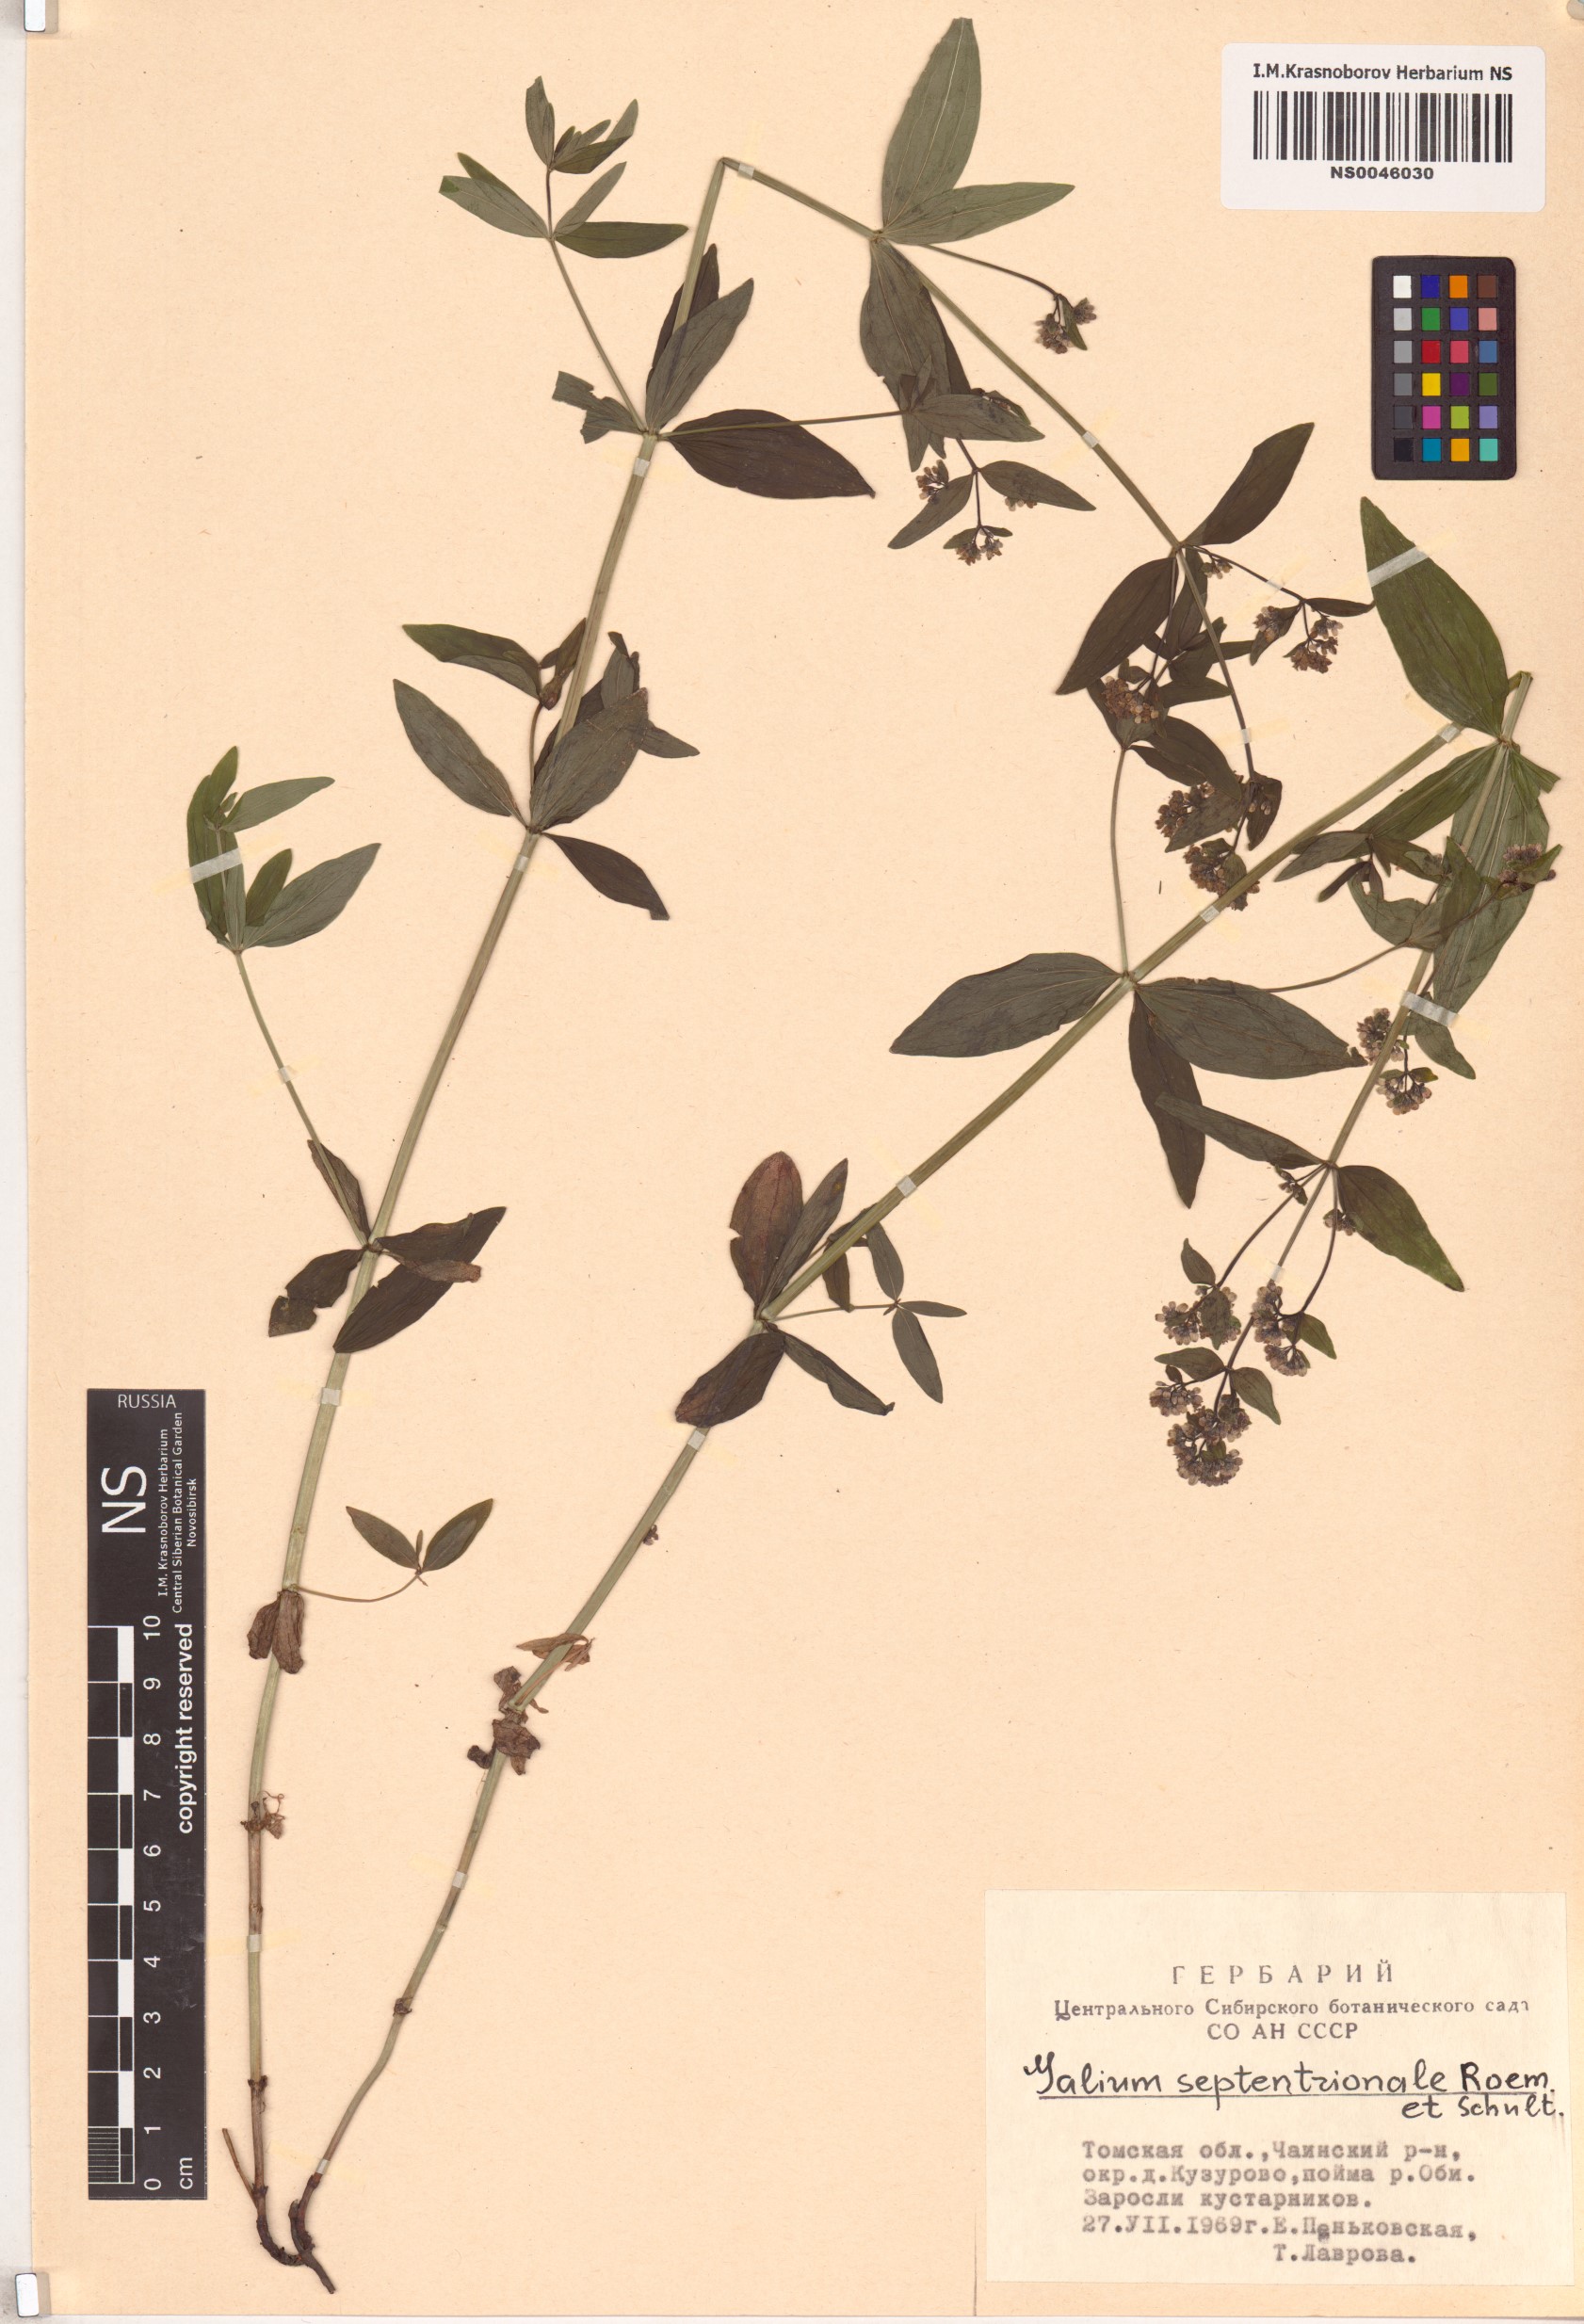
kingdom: Plantae
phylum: Tracheophyta
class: Magnoliopsida
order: Gentianales
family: Rubiaceae
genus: Galium
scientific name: Galium boreale
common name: Northern bedstraw
